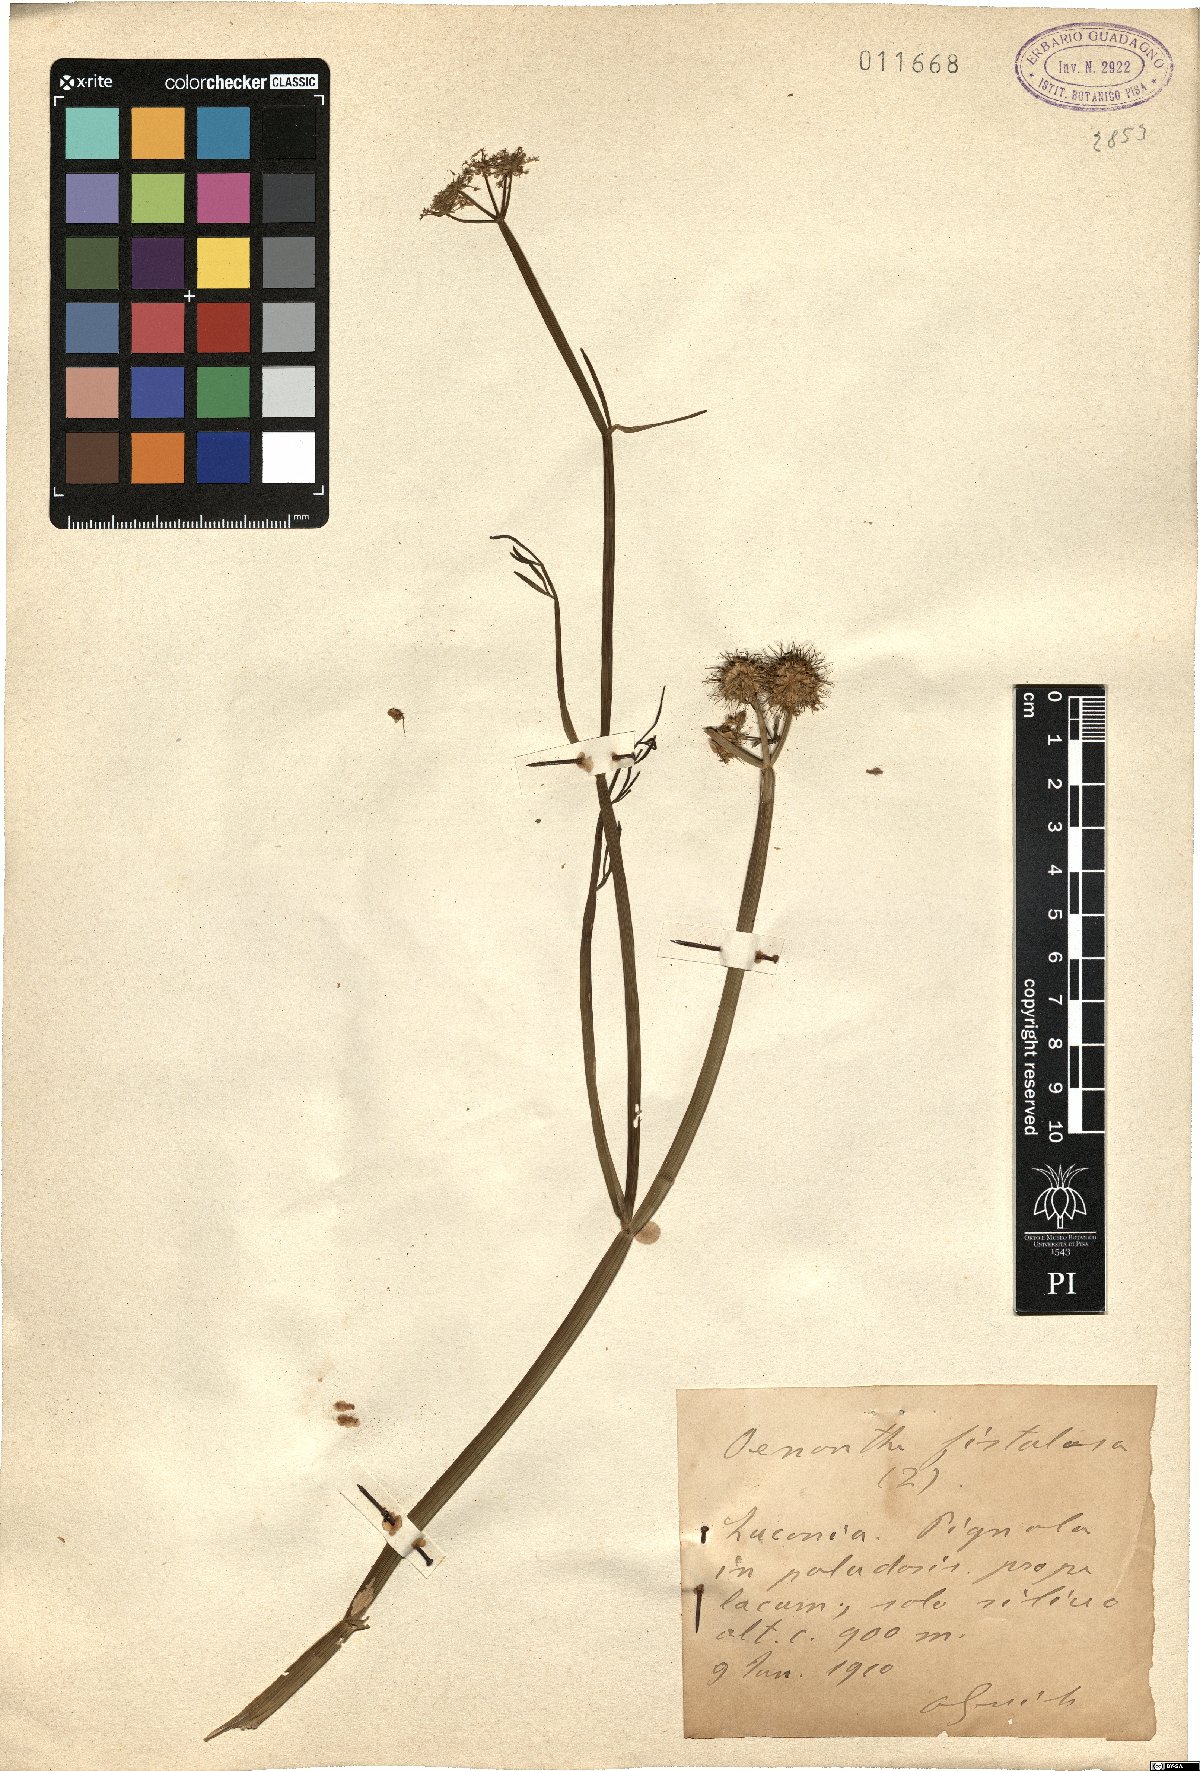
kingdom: Plantae
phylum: Tracheophyta
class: Magnoliopsida
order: Apiales
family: Apiaceae
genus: Oenanthe
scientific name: Oenanthe fistulosa
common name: Tubular water-dropwort
